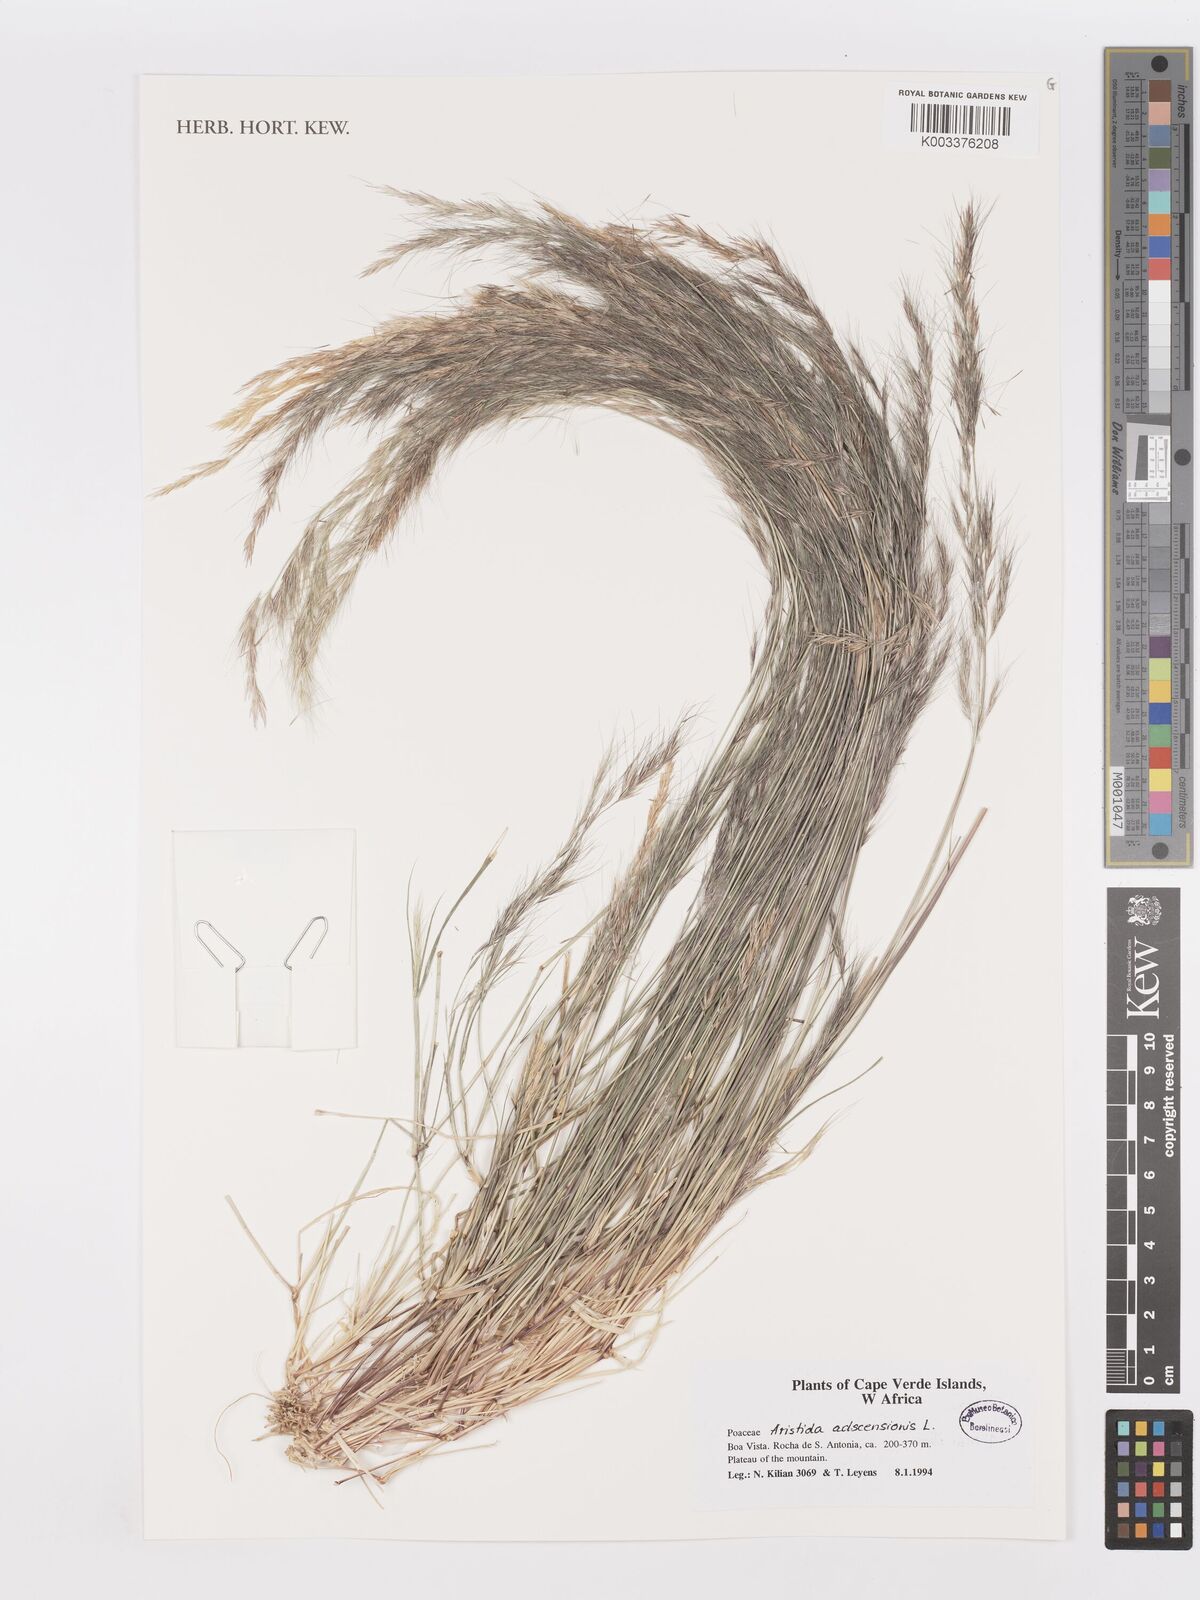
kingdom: Plantae
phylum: Tracheophyta
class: Liliopsida
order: Poales
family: Poaceae
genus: Aristida
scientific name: Aristida adscensionis
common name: Sixweeks threeawn
